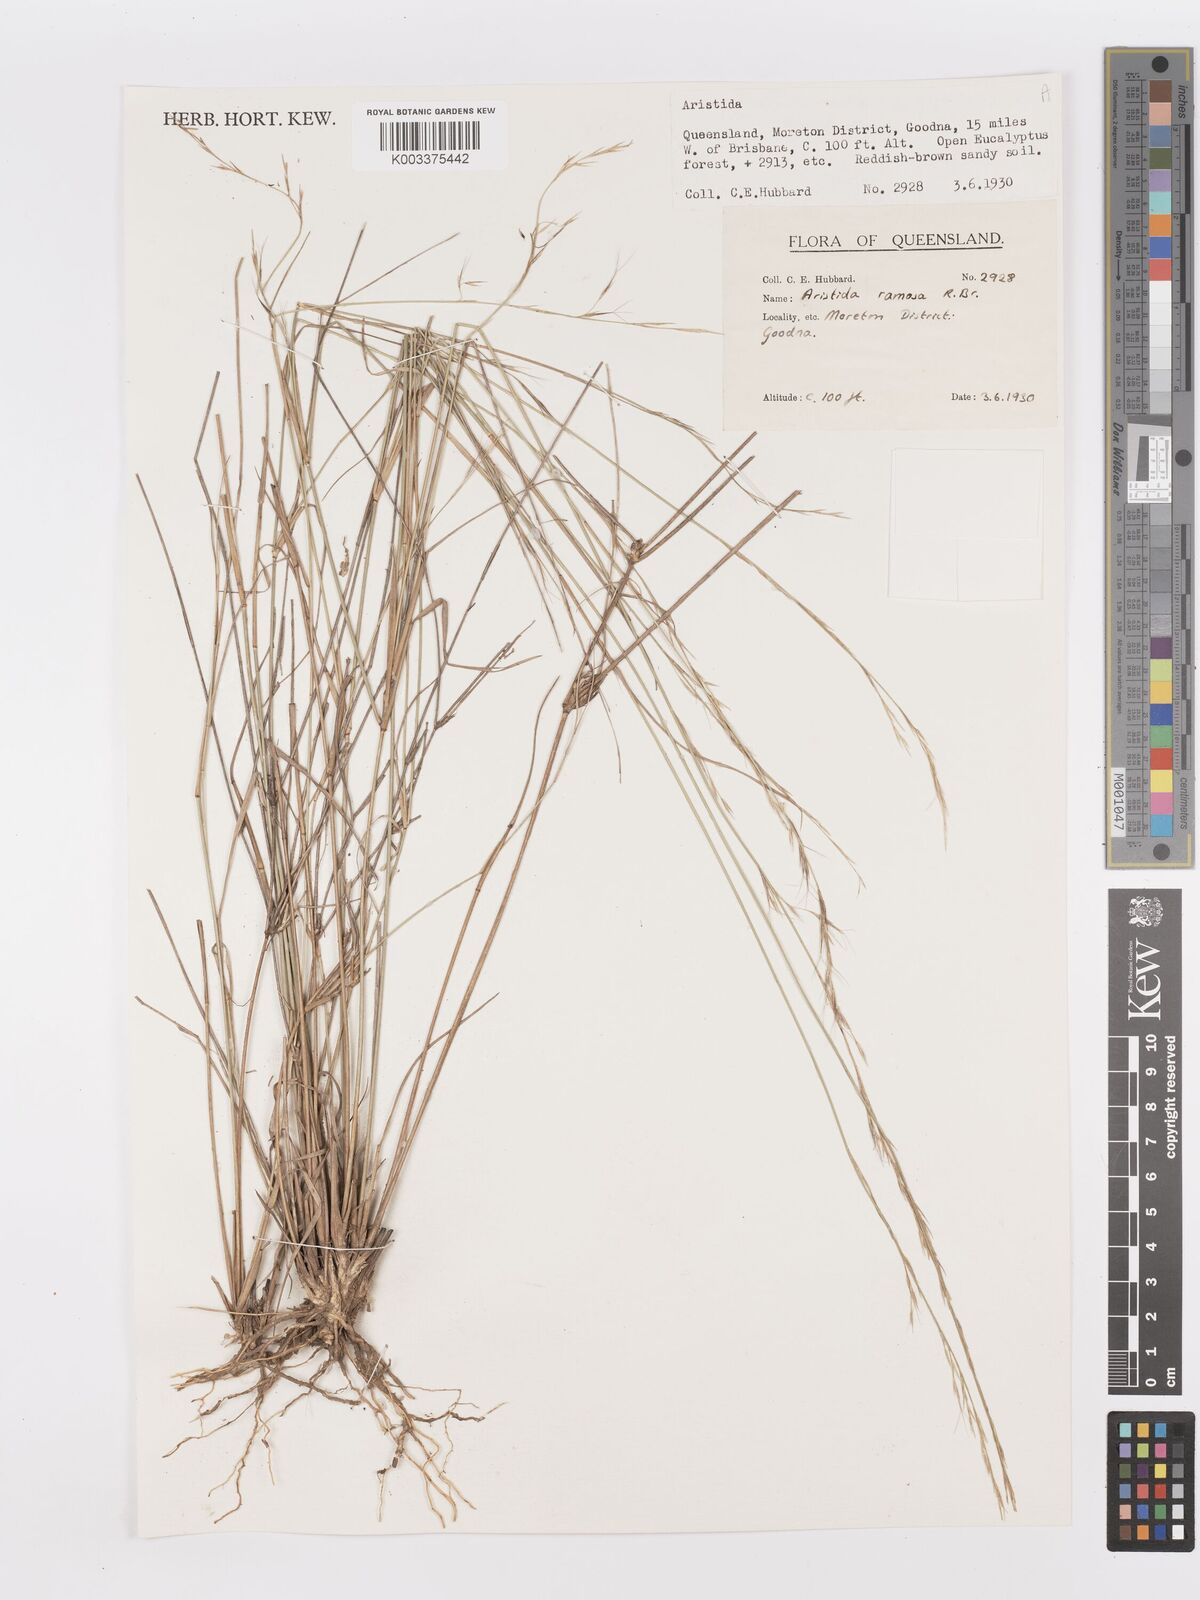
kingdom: Plantae
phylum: Tracheophyta
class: Liliopsida
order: Poales
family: Poaceae
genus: Aristida
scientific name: Aristida ramosa
